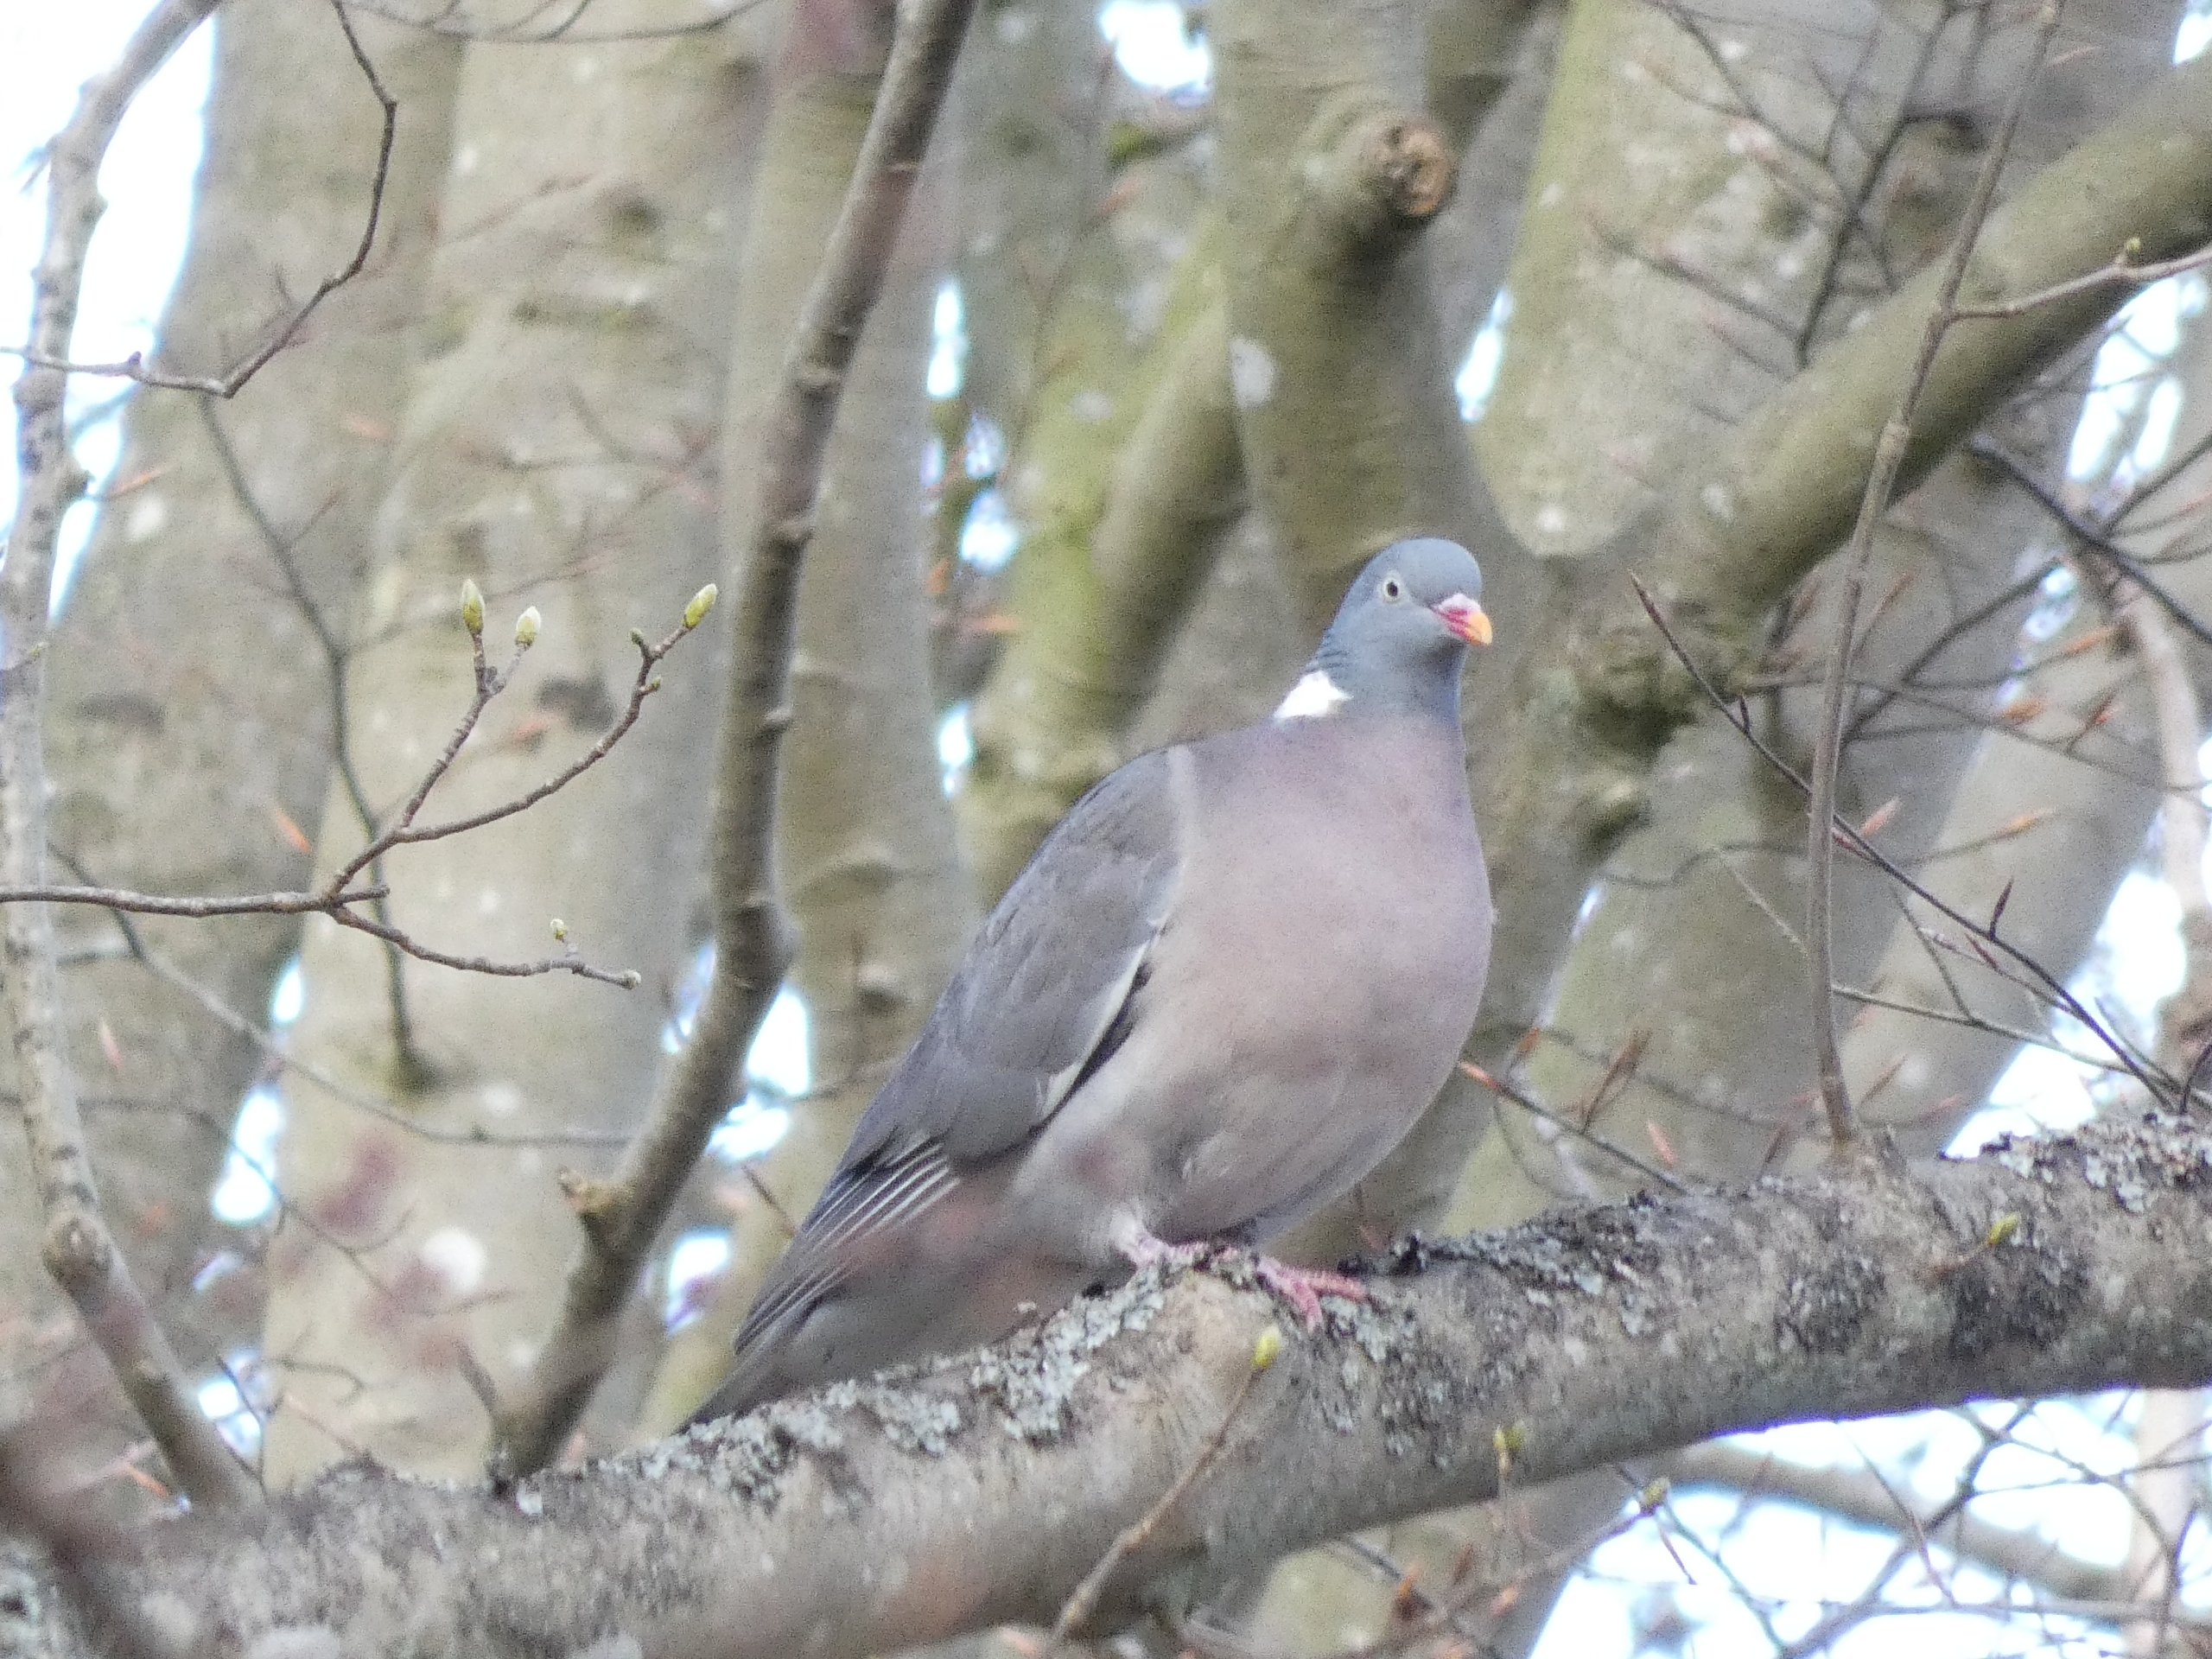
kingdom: Animalia
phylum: Chordata
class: Aves
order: Columbiformes
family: Columbidae
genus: Columba
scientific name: Columba palumbus
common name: Ringdue
